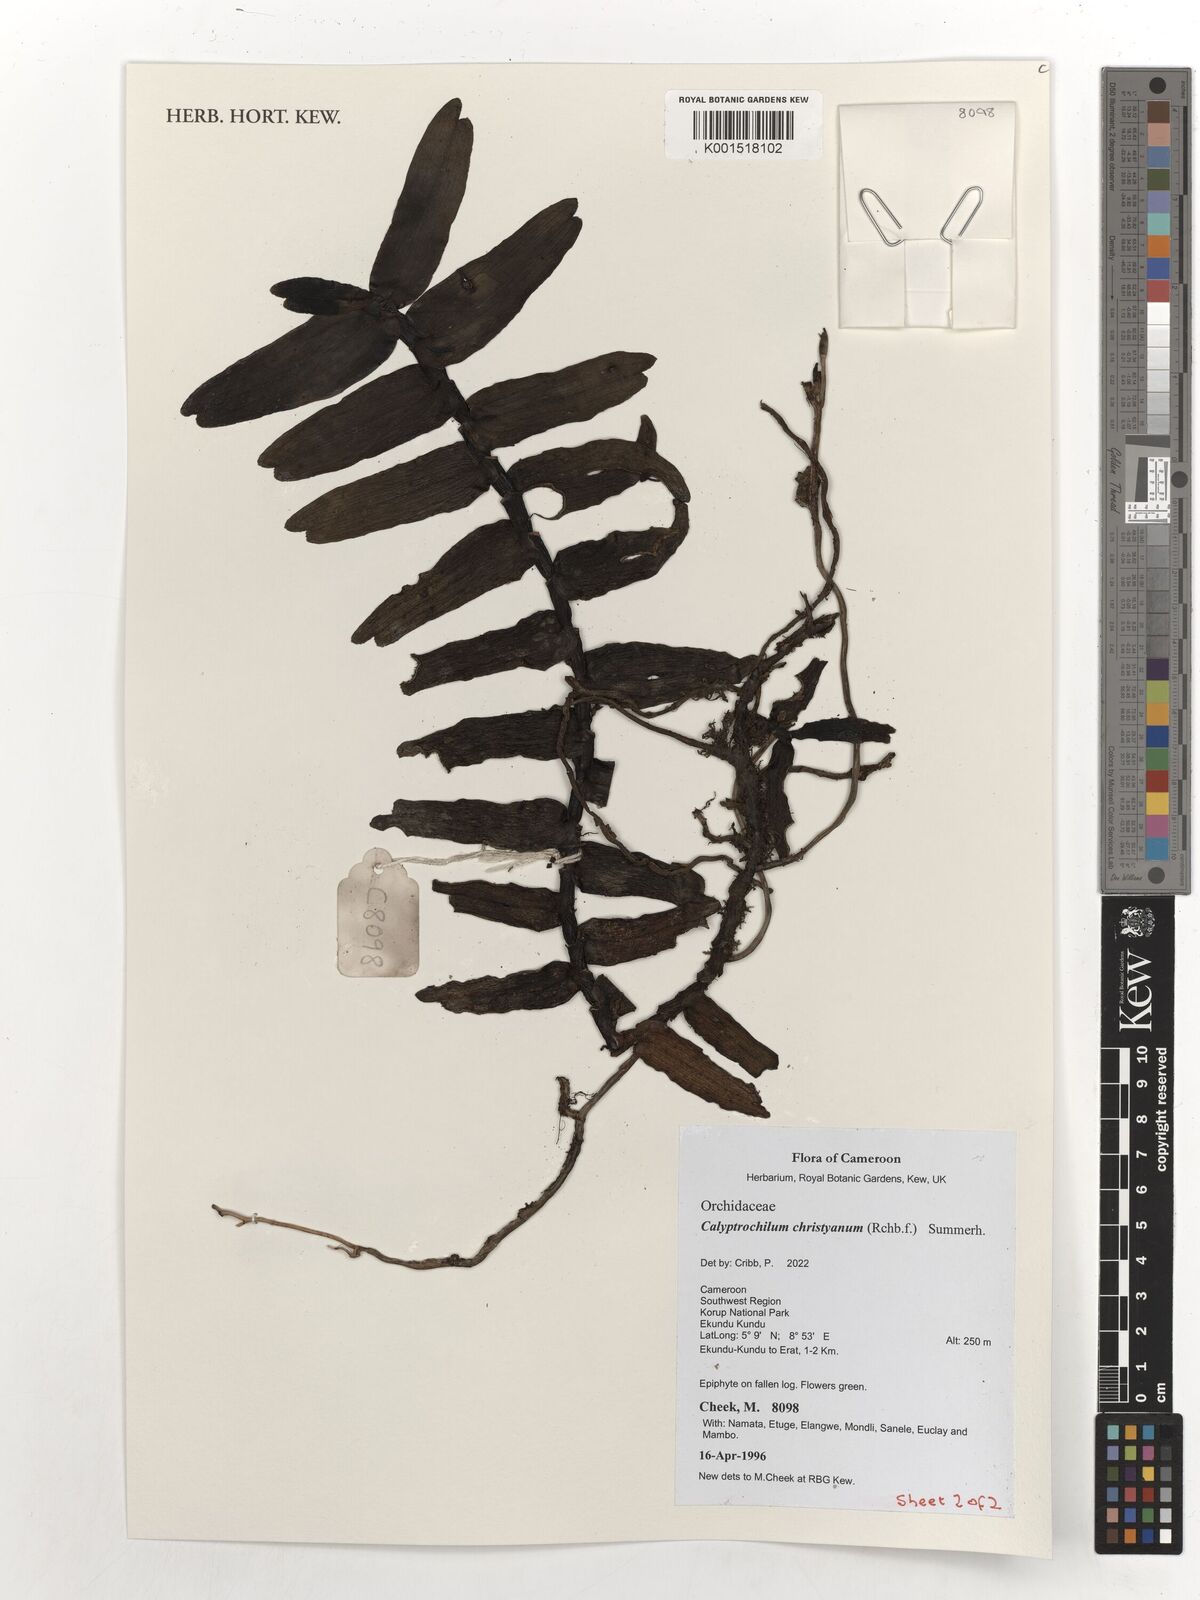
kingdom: Plantae
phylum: Tracheophyta
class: Liliopsida
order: Asparagales
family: Orchidaceae
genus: Calyptrochilum
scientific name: Calyptrochilum christyanum
